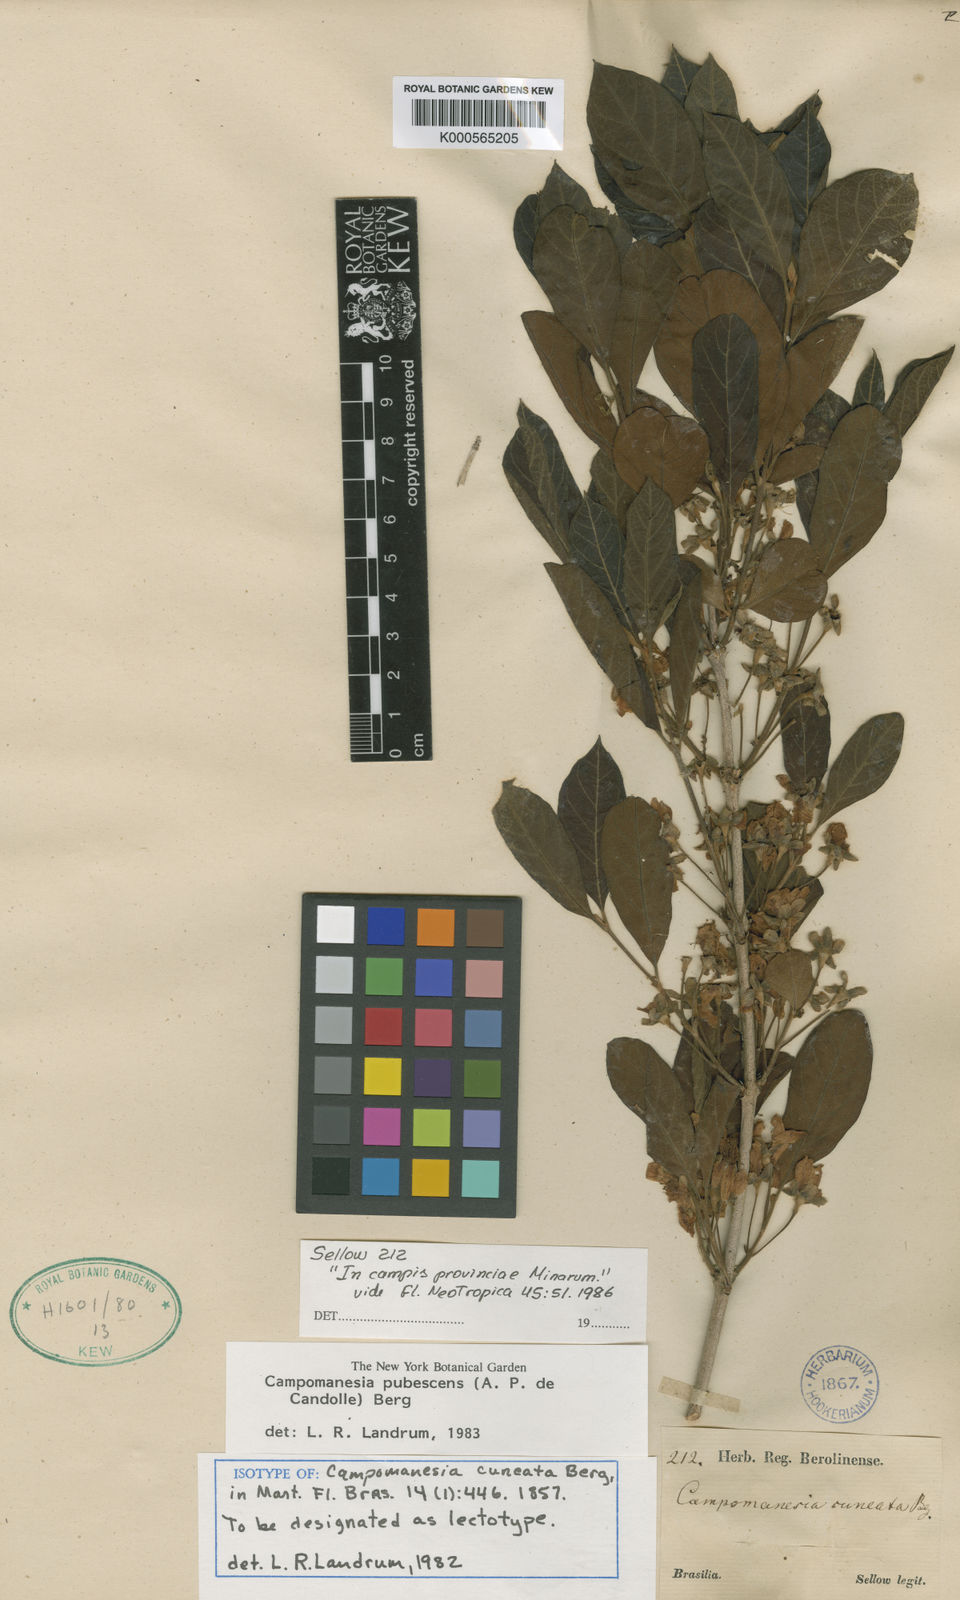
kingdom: Plantae
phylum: Tracheophyta
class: Magnoliopsida
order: Myrtales
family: Myrtaceae
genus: Campomanesia
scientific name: Campomanesia pubescens
